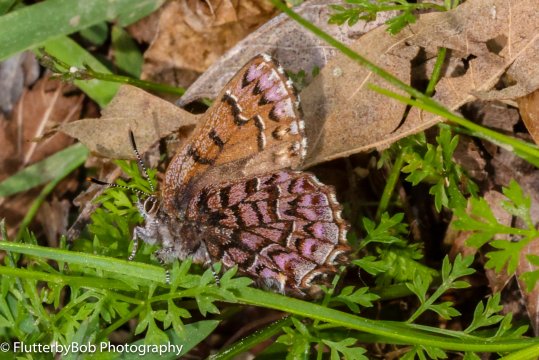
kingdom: Animalia
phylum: Arthropoda
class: Insecta
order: Lepidoptera
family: Lycaenidae
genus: Incisalia
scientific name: Incisalia niphon
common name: Eastern Pine Elfin
